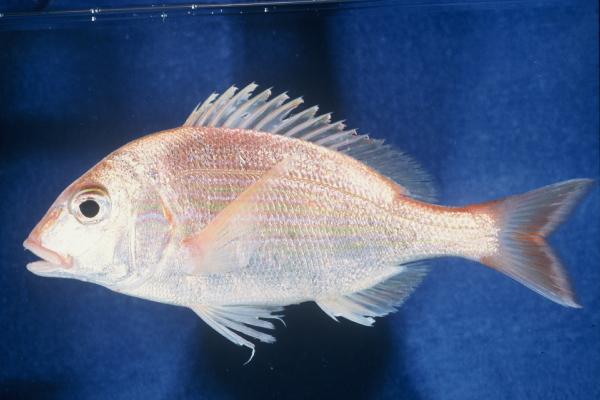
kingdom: Animalia
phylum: Chordata
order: Perciformes
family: Sparidae
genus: Pterogymnus
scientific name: Pterogymnus laniarius
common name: Panga
